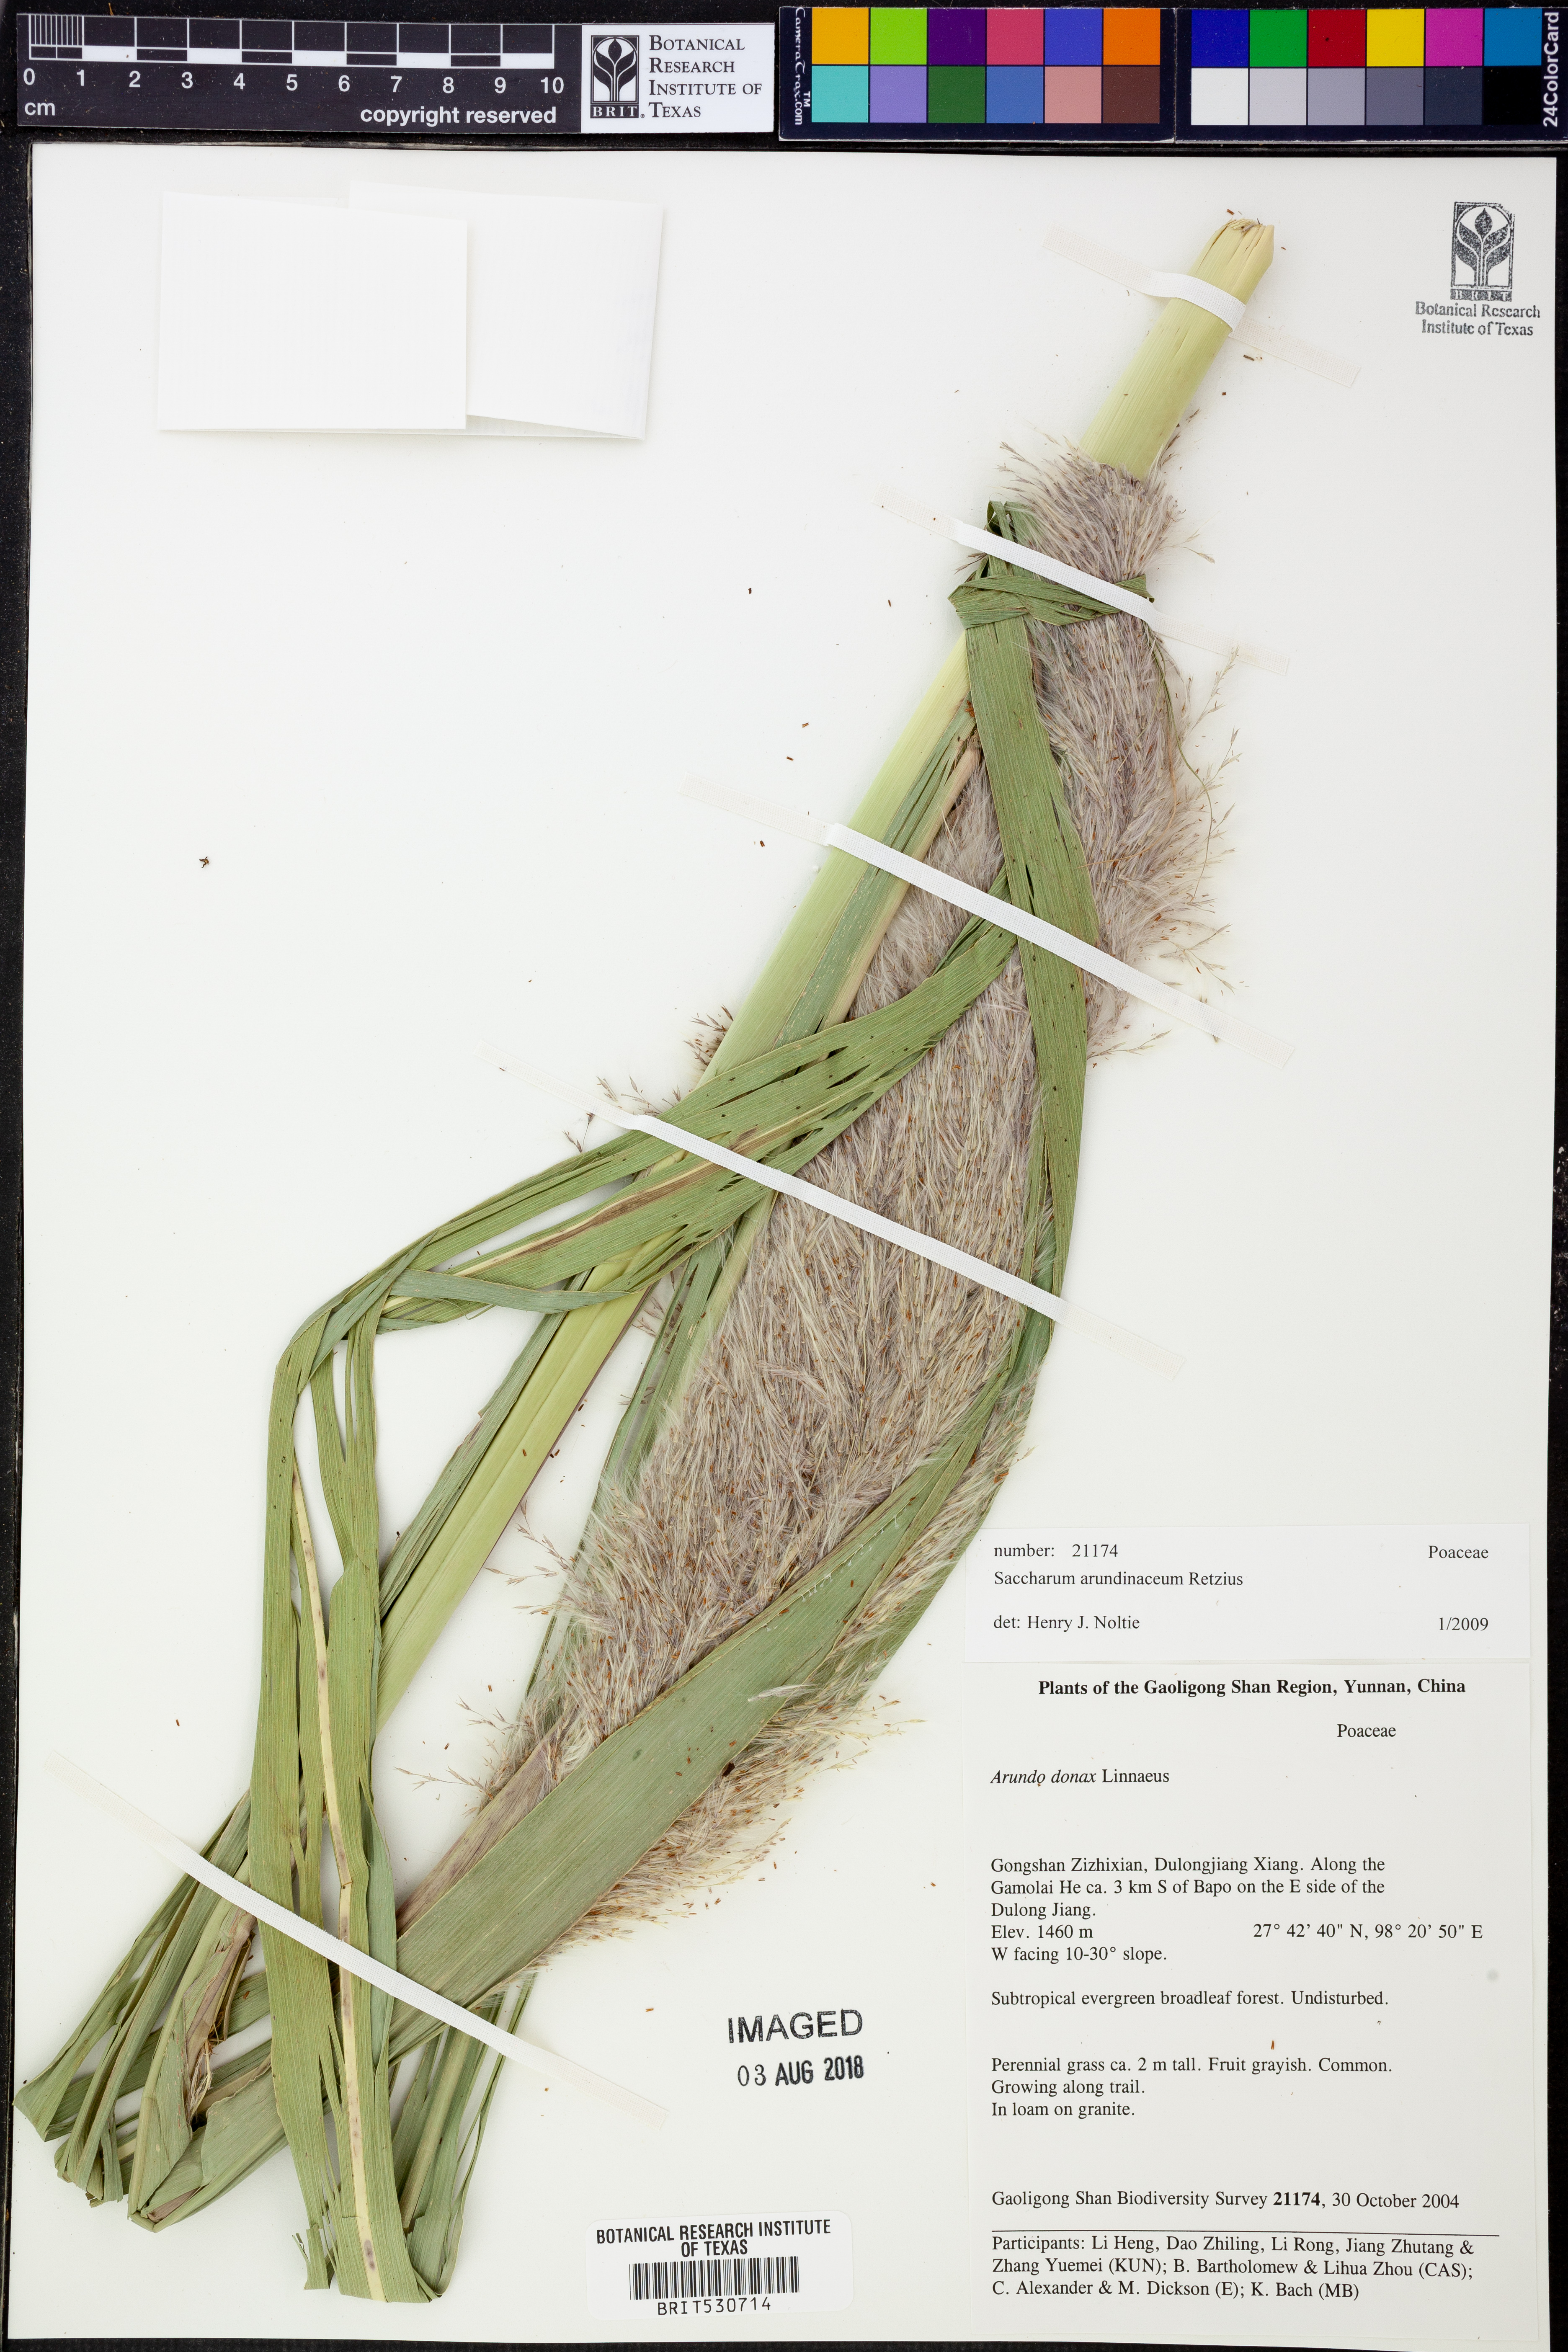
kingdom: Plantae
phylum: Tracheophyta
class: Liliopsida
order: Poales
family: Poaceae
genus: Tripidium
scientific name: Tripidium arundinaceum
